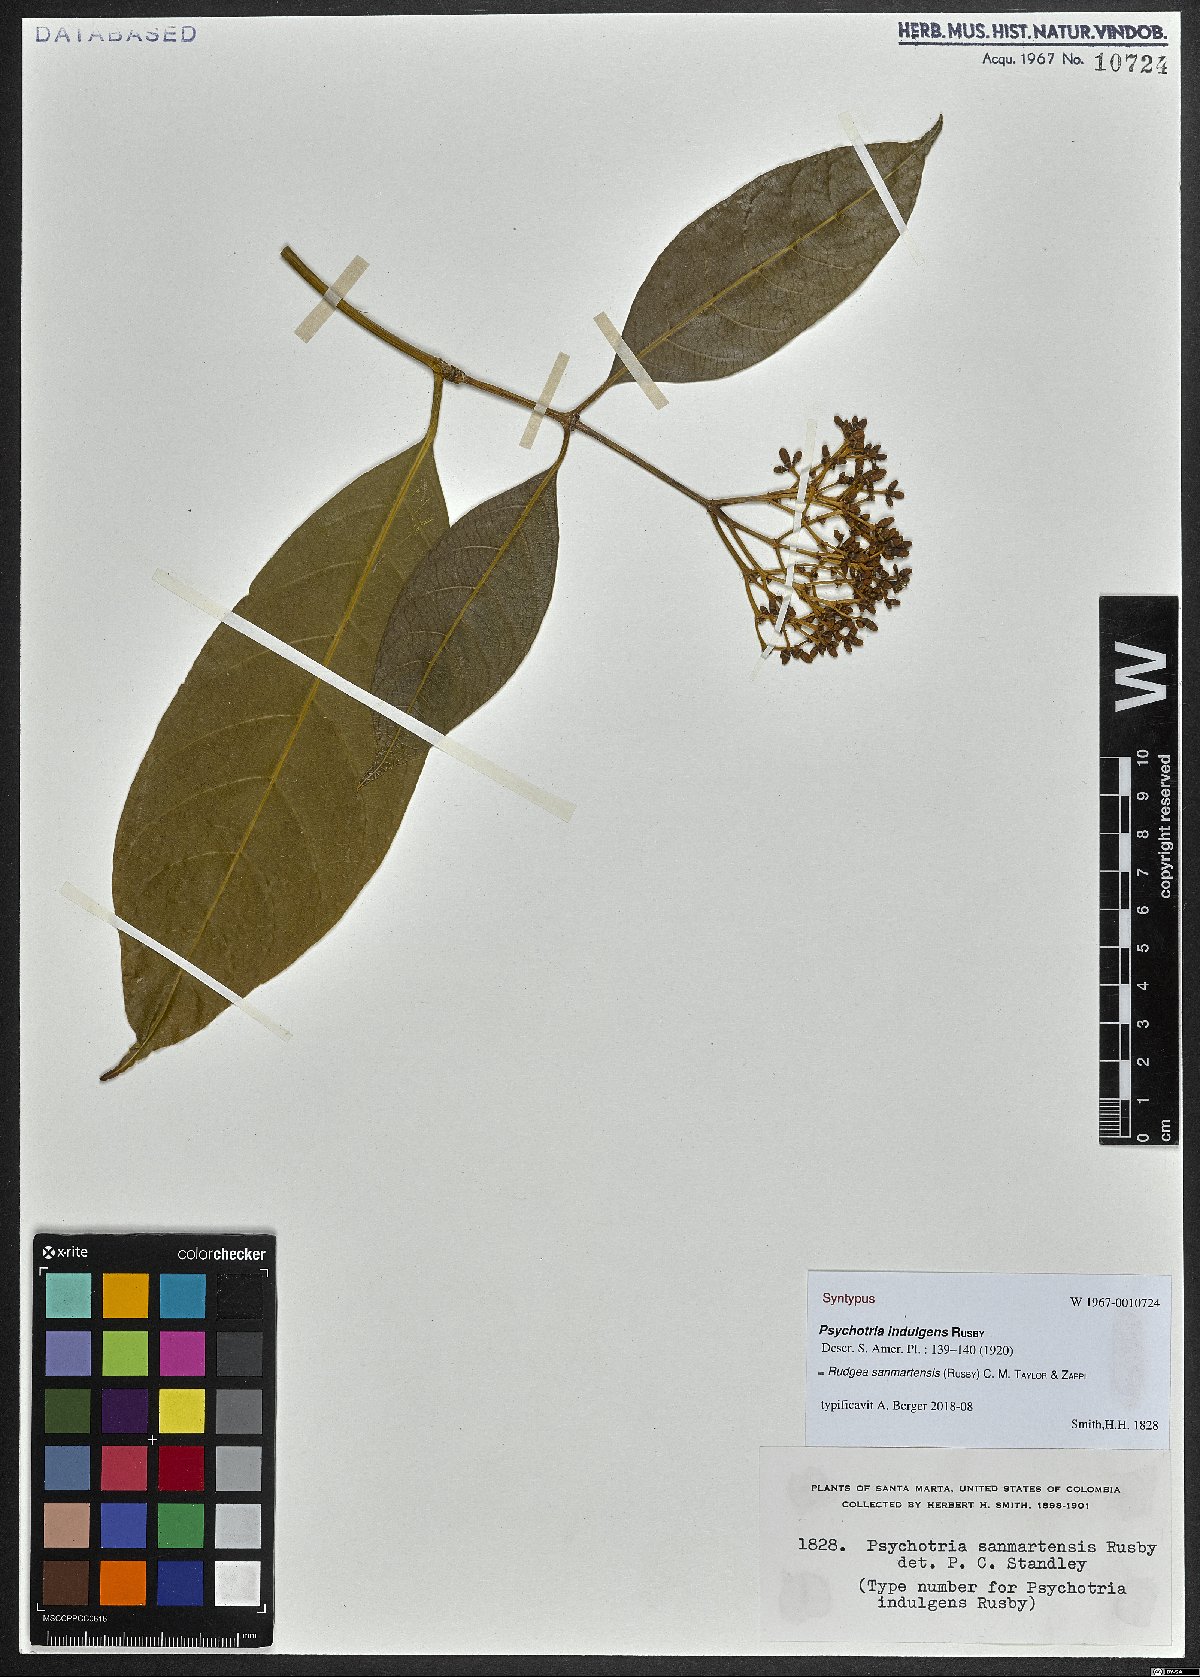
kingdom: Plantae
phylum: Tracheophyta
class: Magnoliopsida
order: Gentianales
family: Rubiaceae
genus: Rudgea
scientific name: Rudgea sanmartensis
